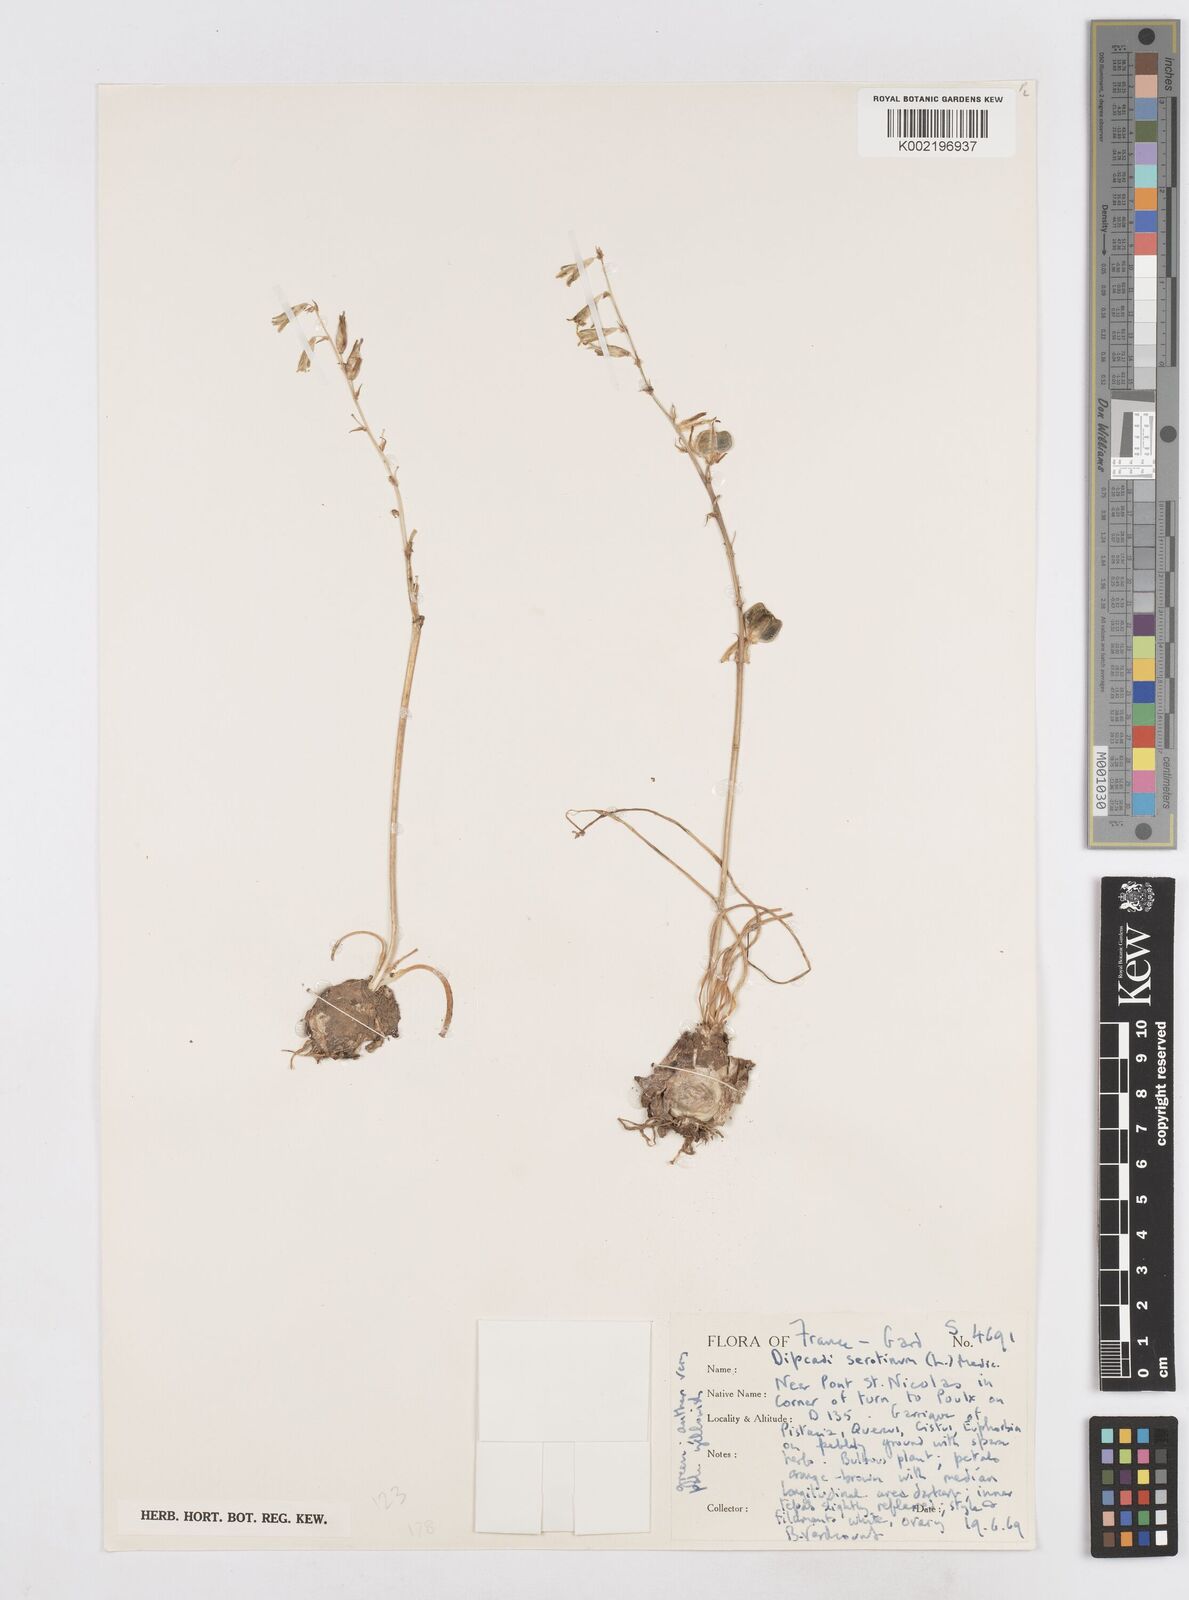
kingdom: Plantae
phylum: Tracheophyta
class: Liliopsida
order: Asparagales
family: Asparagaceae
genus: Dipcadi
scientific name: Dipcadi serotinum
